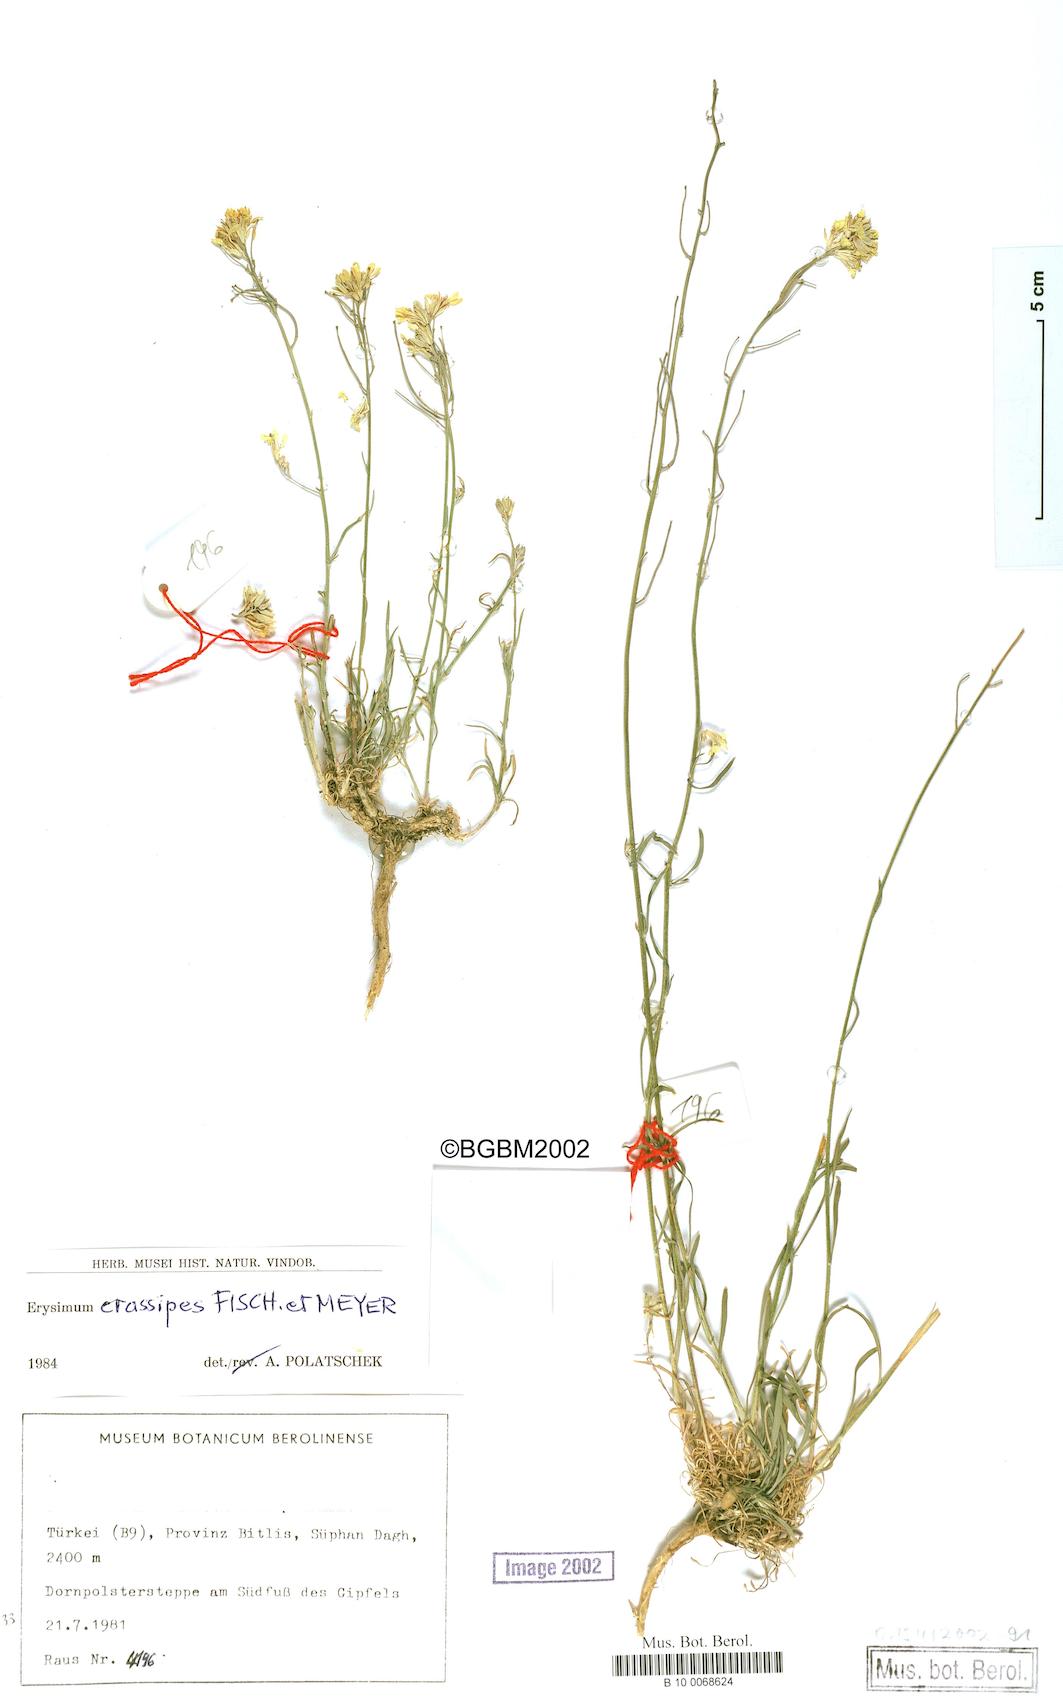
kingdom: Plantae
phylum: Tracheophyta
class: Magnoliopsida
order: Brassicales
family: Brassicaceae
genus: Erysimum
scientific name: Erysimum crassipes
